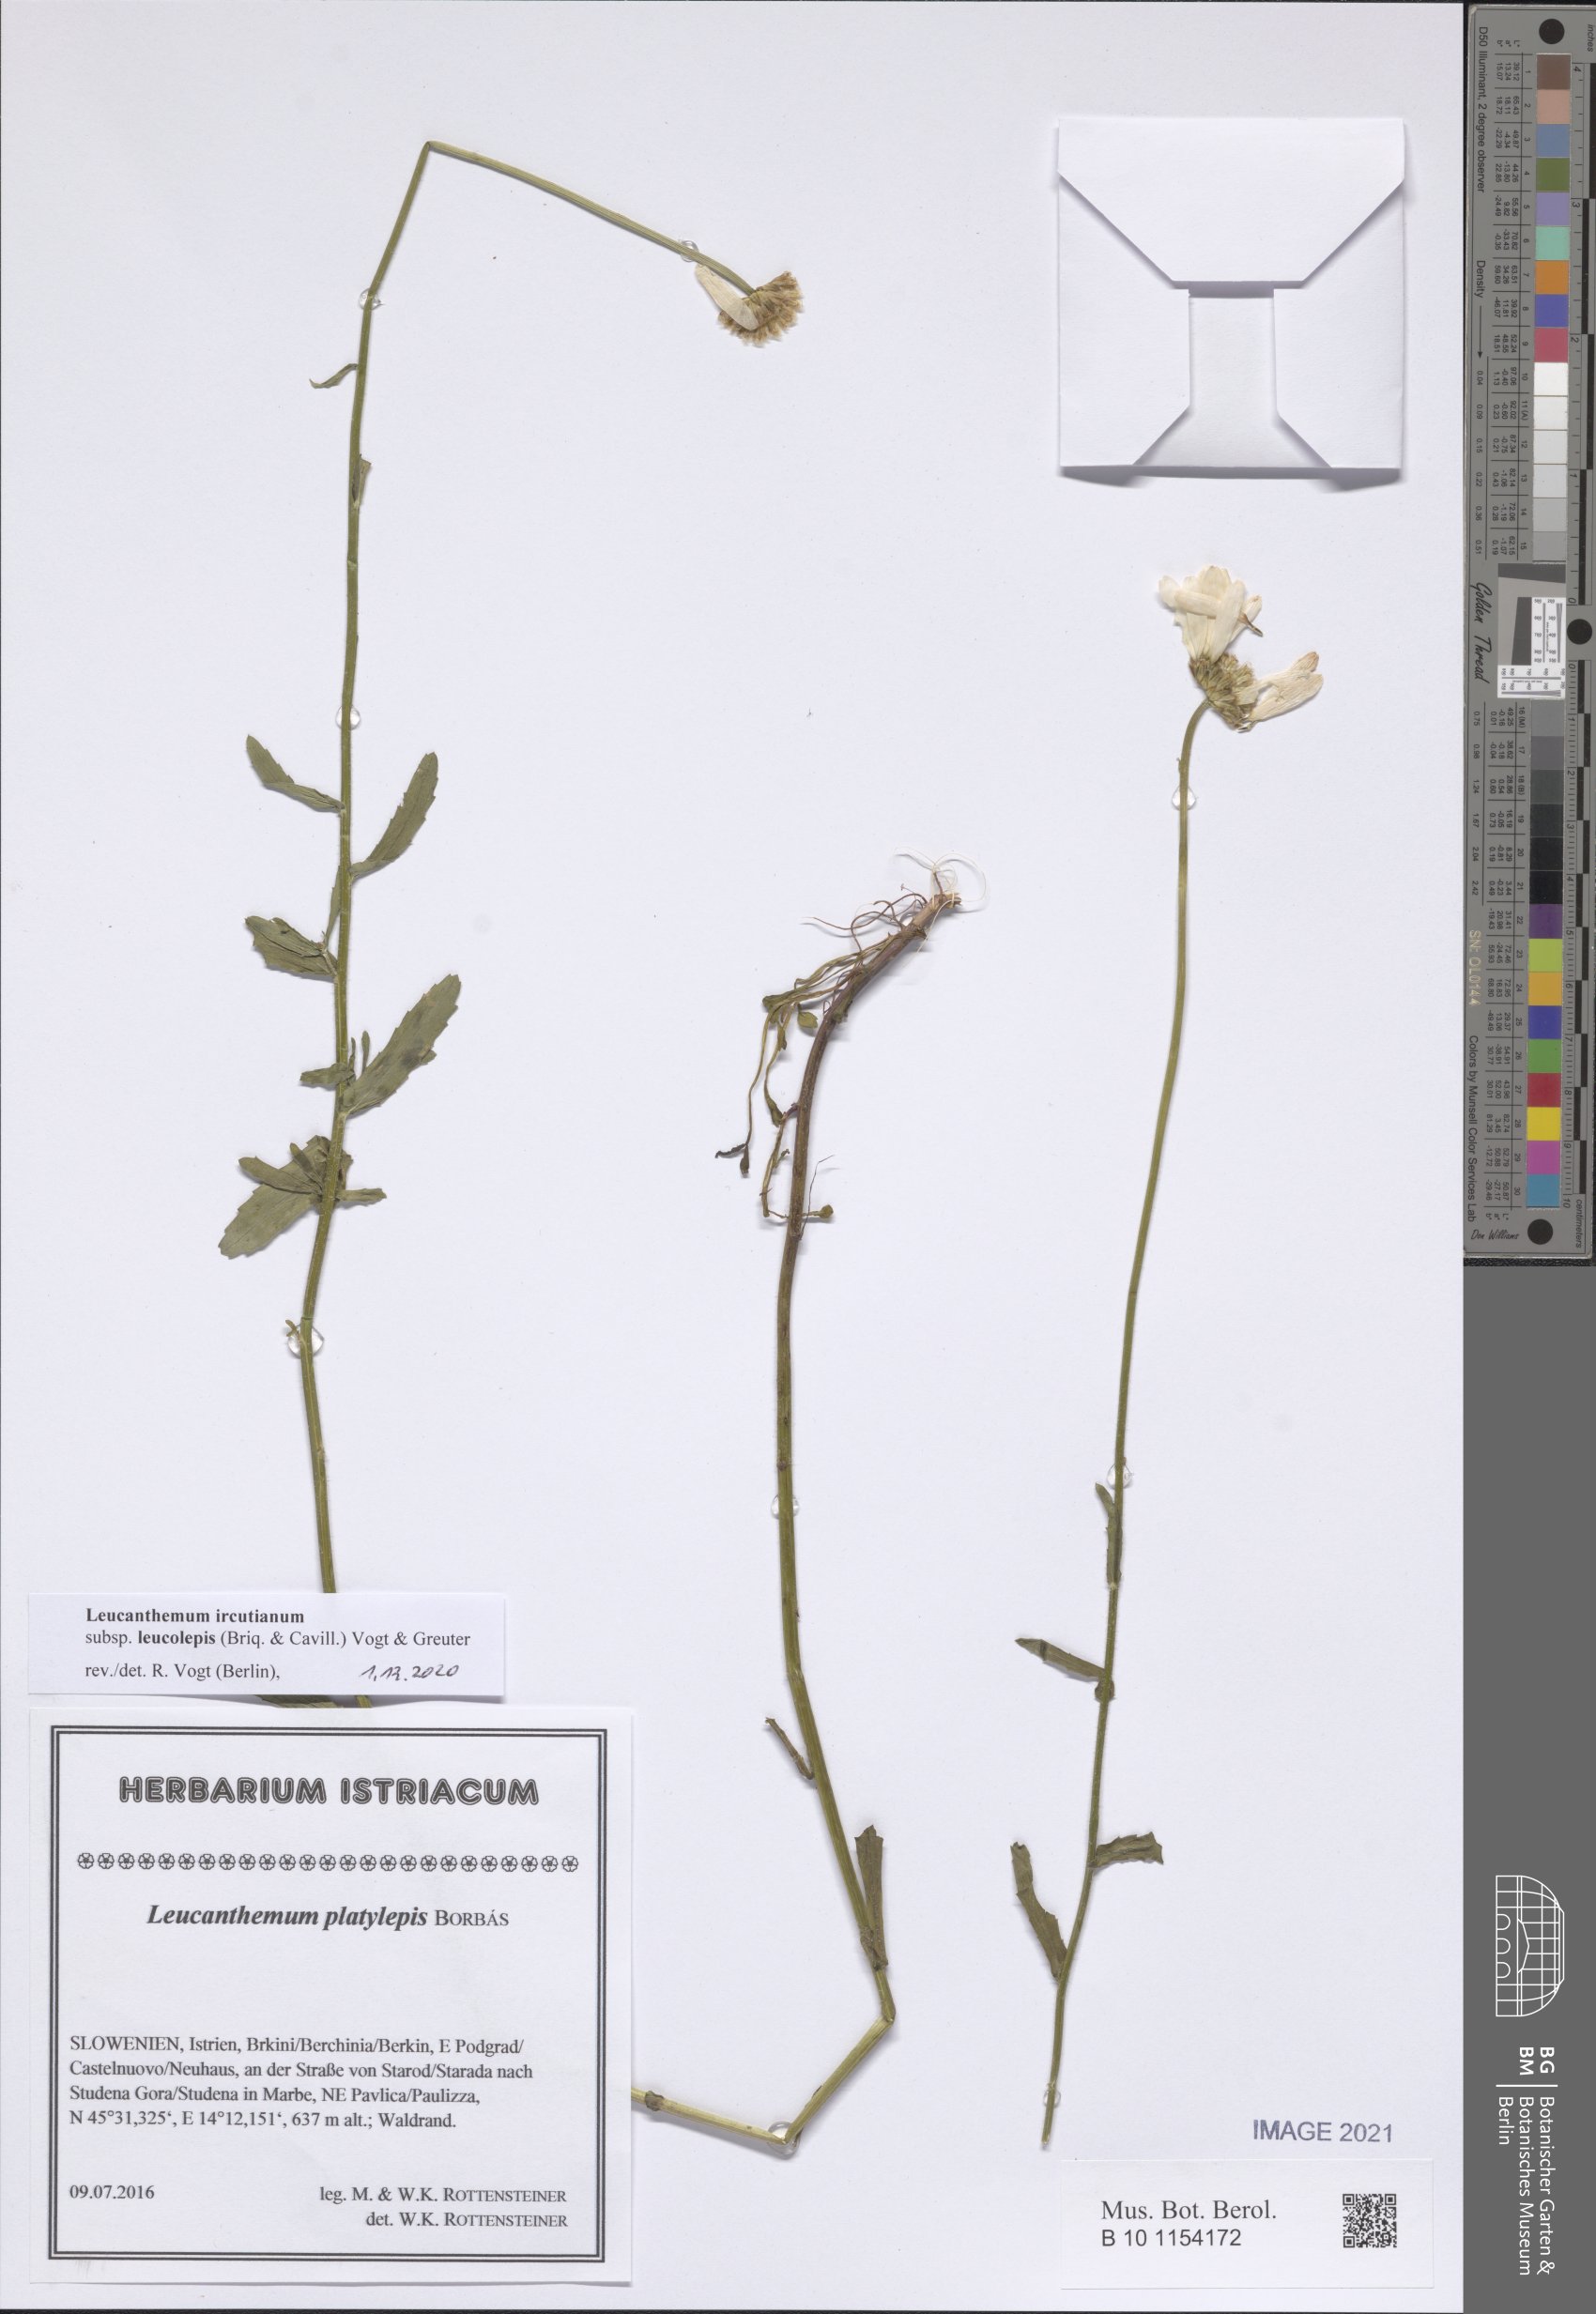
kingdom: Plantae
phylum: Tracheophyta
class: Magnoliopsida
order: Asterales
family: Asteraceae
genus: Leucanthemum
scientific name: Leucanthemum ircutianum
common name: Daisy
